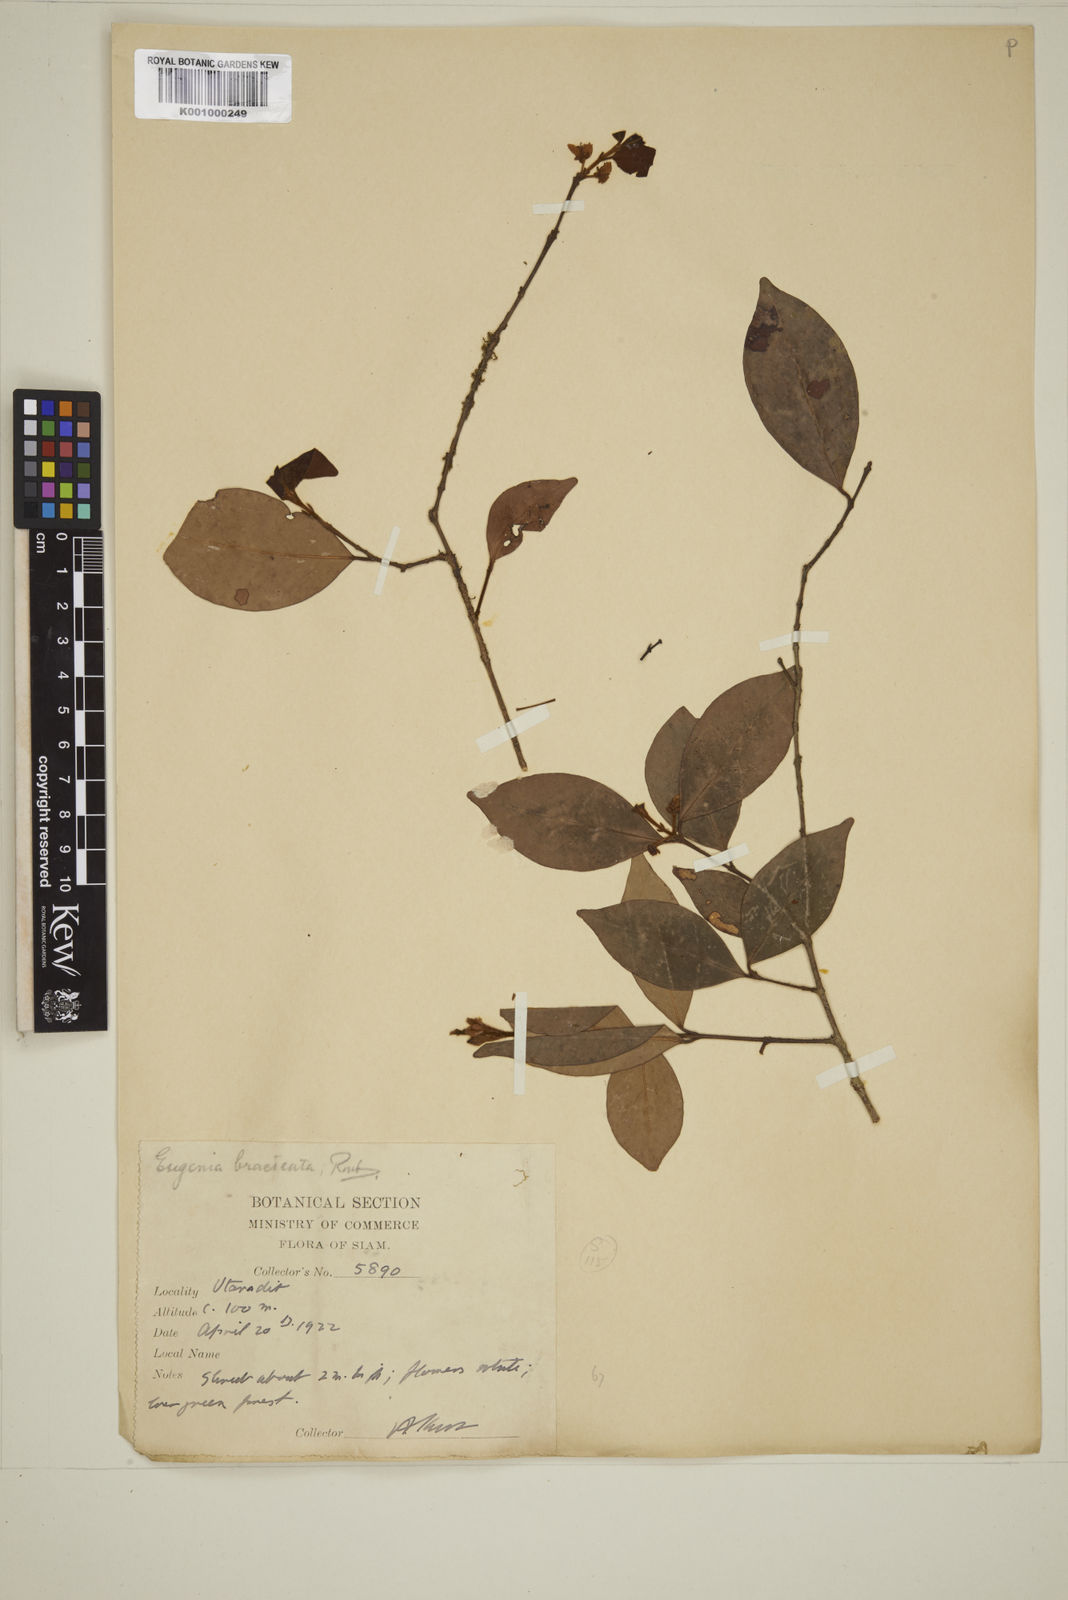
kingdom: Plantae
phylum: Tracheophyta
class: Magnoliopsida
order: Myrtales
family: Myrtaceae
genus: Myrcia
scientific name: Myrcia bracteata
